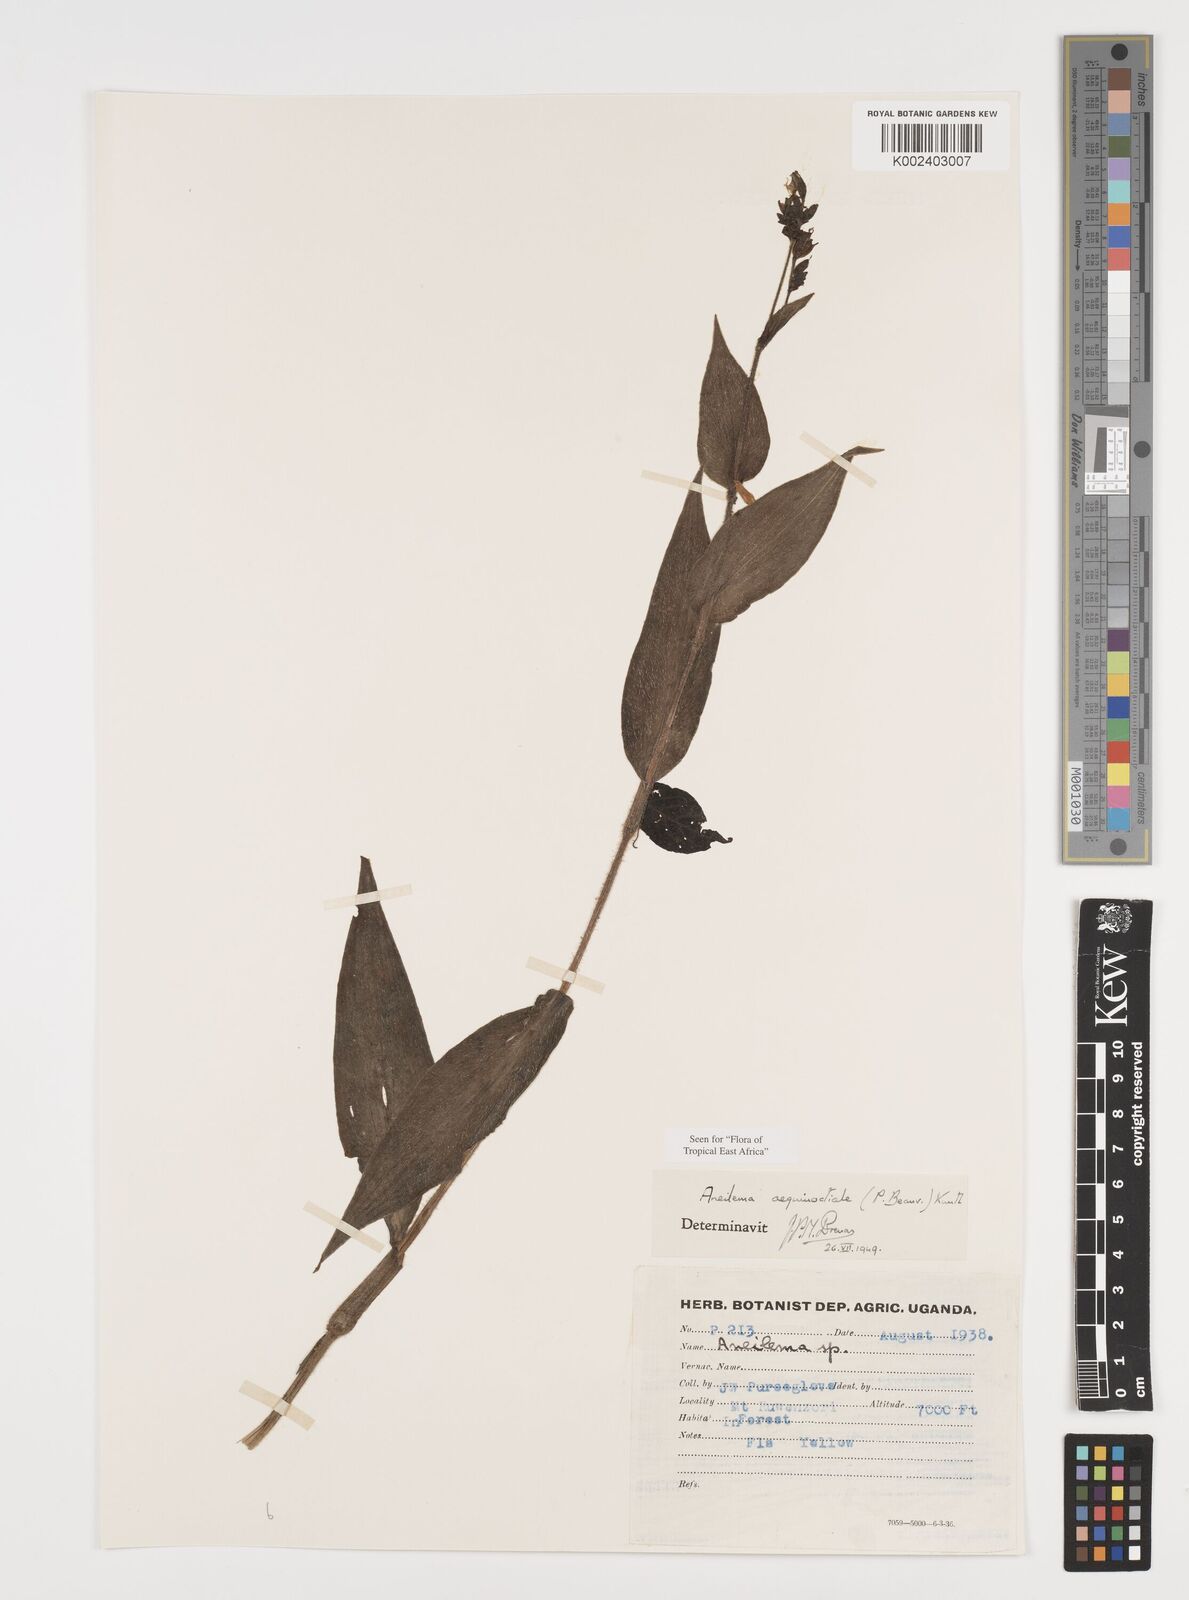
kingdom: Plantae
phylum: Tracheophyta
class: Liliopsida
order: Commelinales
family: Commelinaceae
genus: Aneilema
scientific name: Aneilema aequinoctiale
